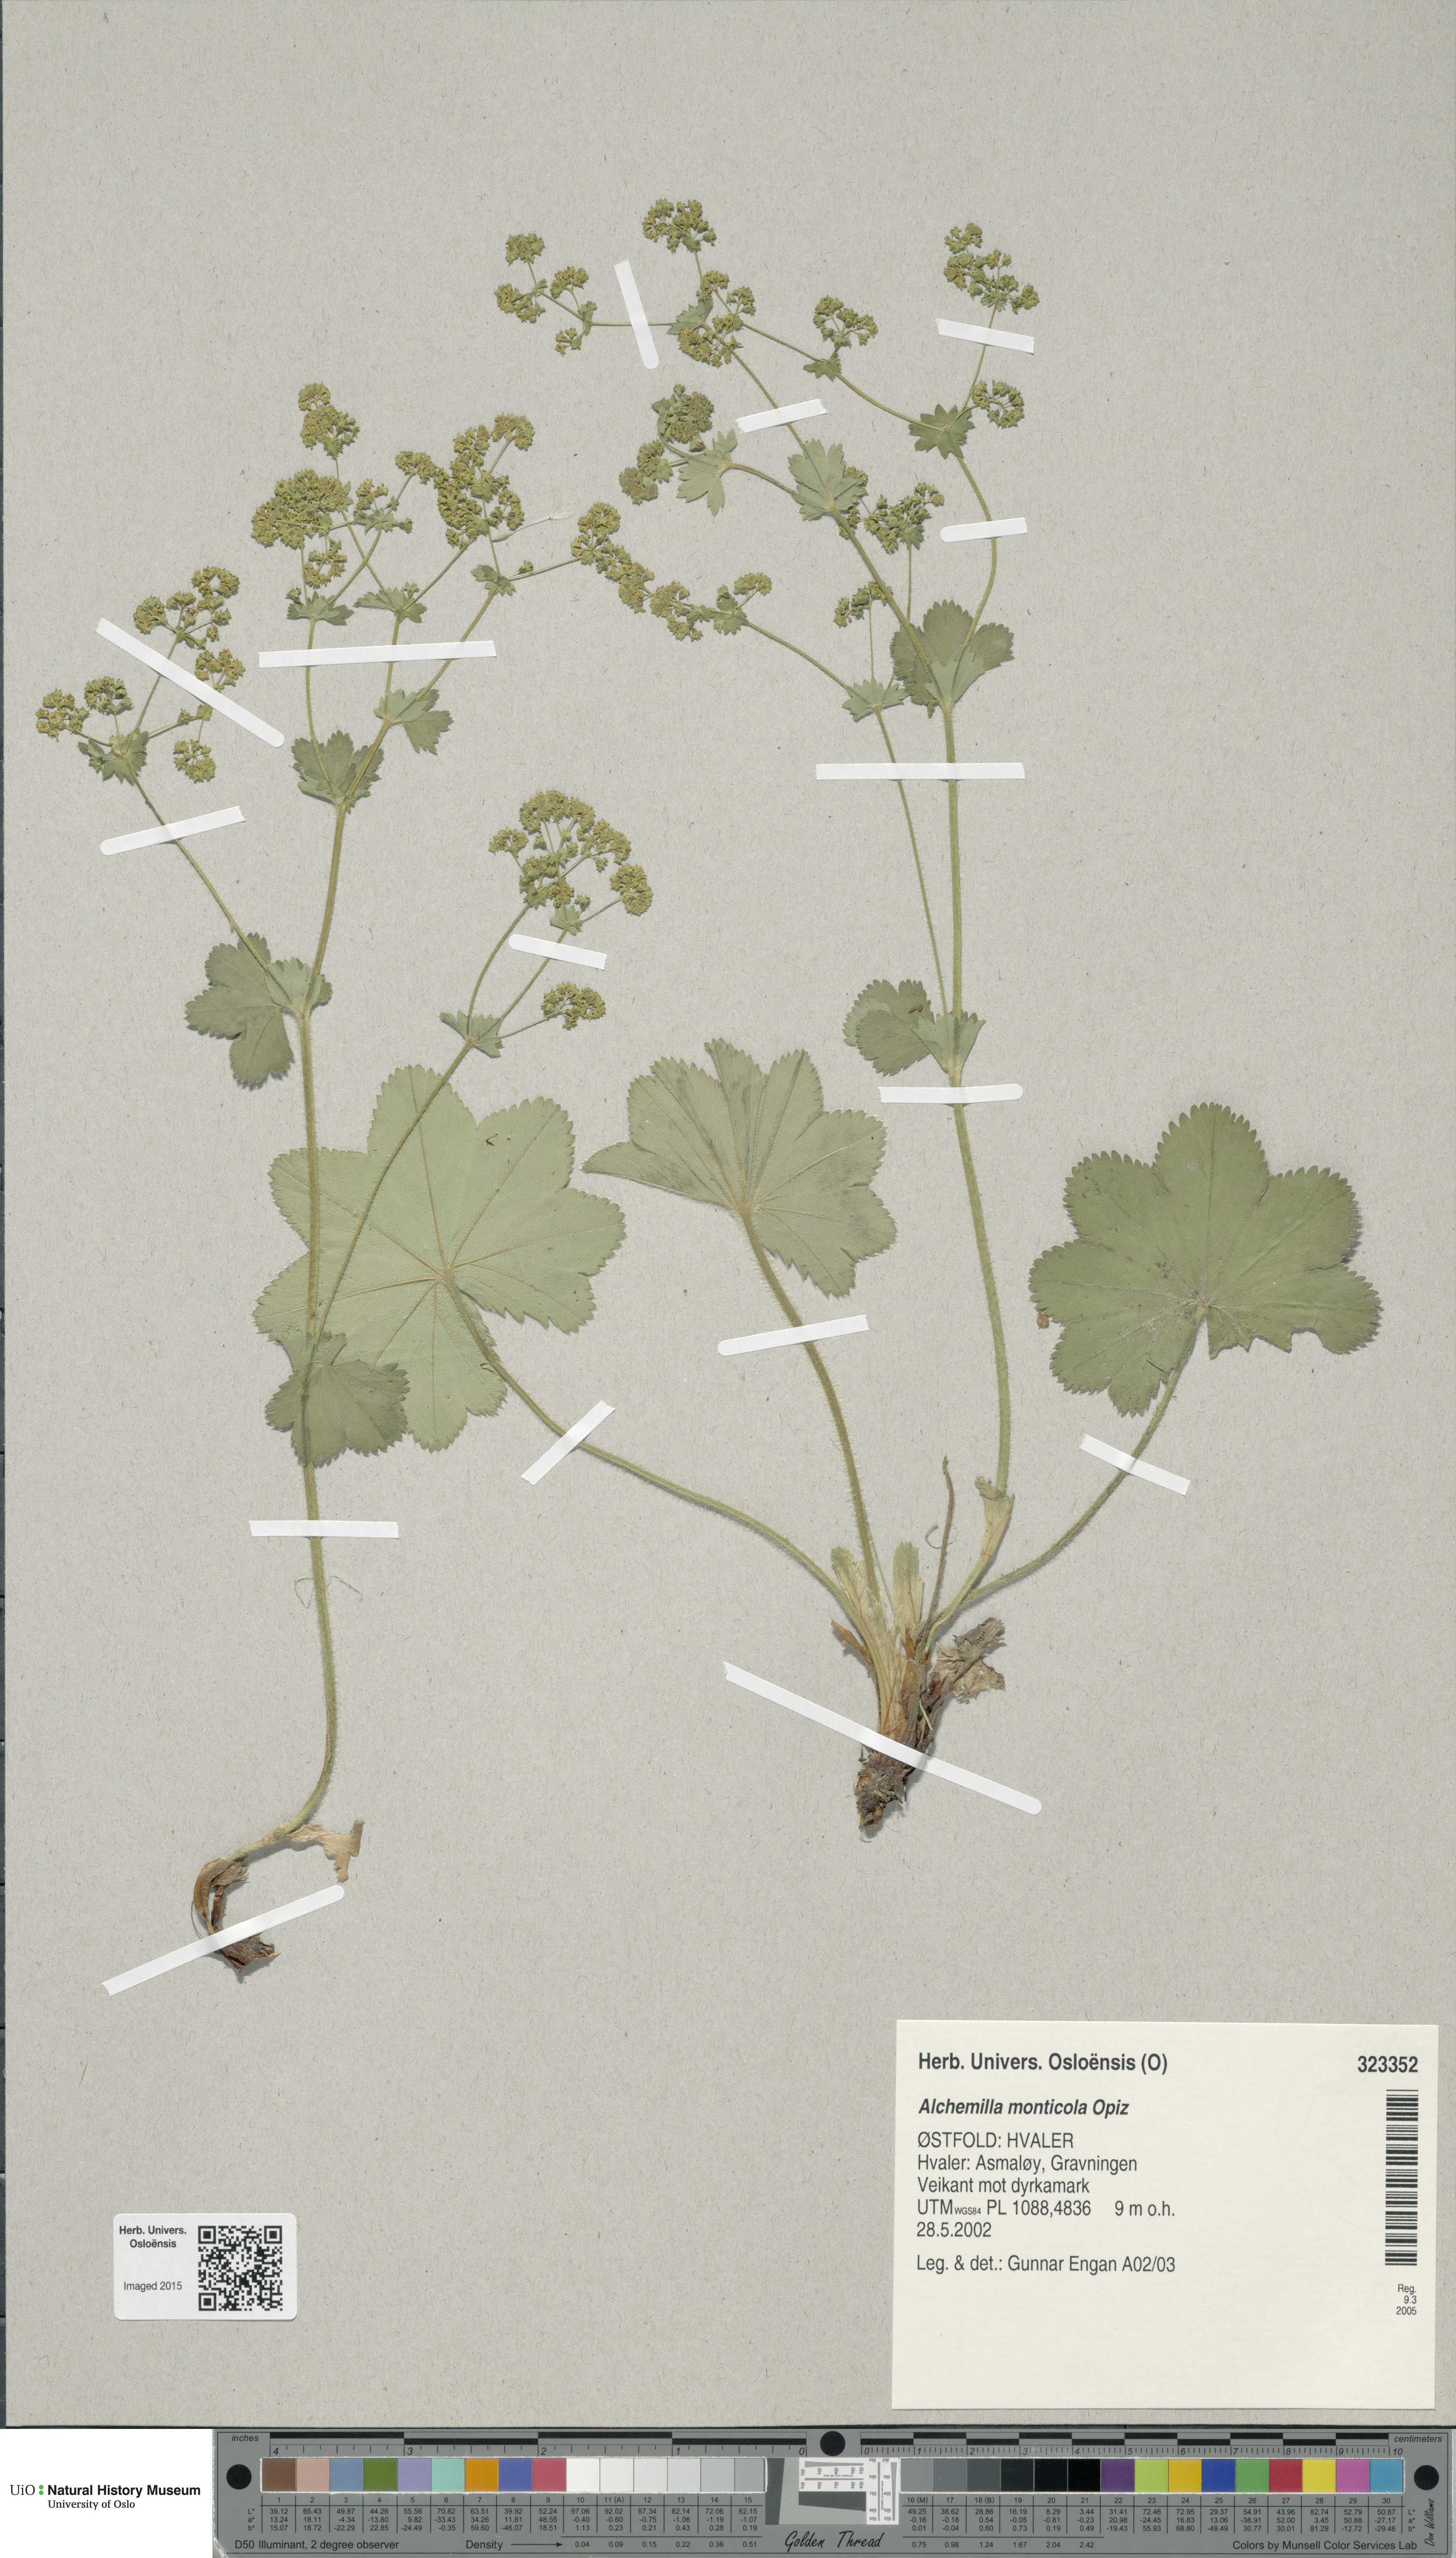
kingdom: Plantae
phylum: Tracheophyta
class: Magnoliopsida
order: Rosales
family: Rosaceae
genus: Alchemilla
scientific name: Alchemilla monticola
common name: Hairy lady's mantle
